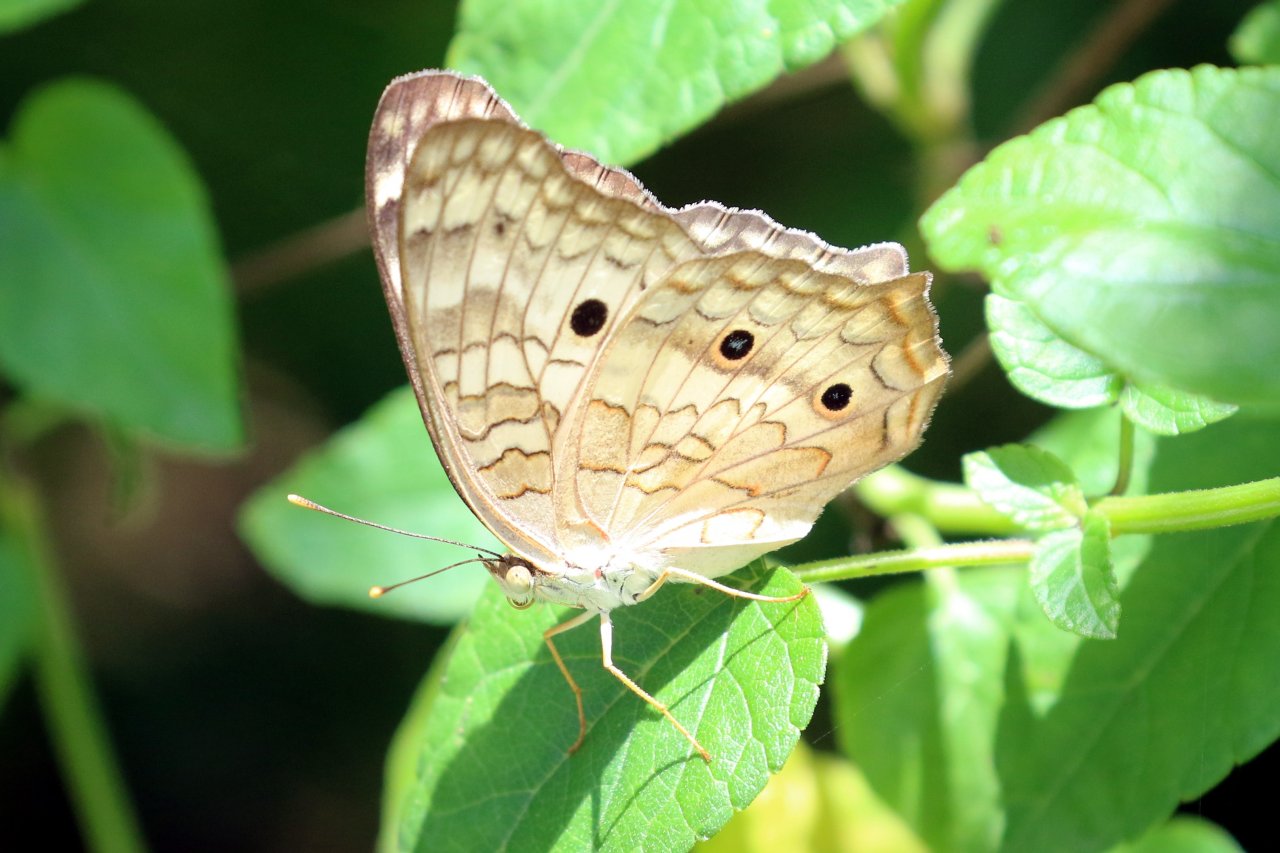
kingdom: Animalia
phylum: Arthropoda
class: Insecta
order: Lepidoptera
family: Nymphalidae
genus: Anartia
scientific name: Anartia jatrophae
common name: White Peacock
